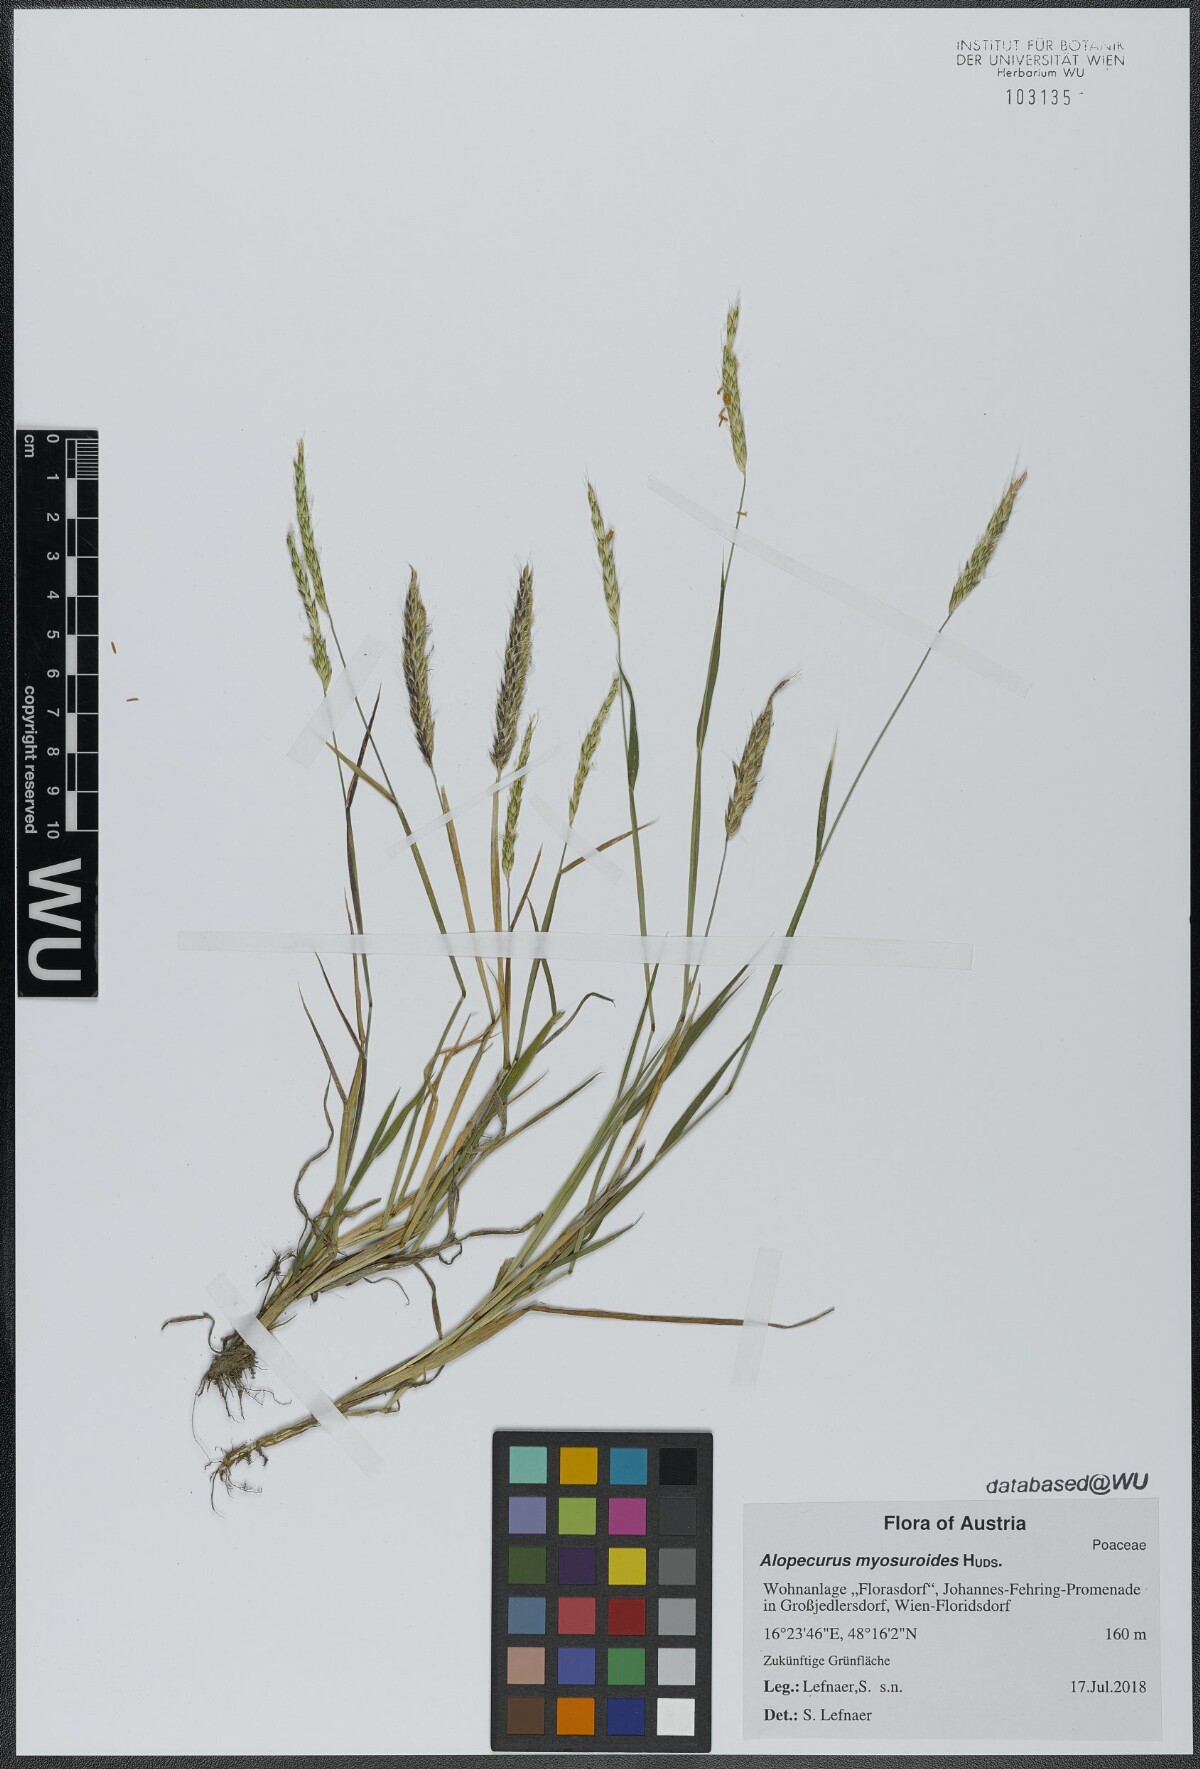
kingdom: Plantae
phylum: Tracheophyta
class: Liliopsida
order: Poales
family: Poaceae
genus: Alopecurus
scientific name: Alopecurus myosuroides
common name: Black-grass
